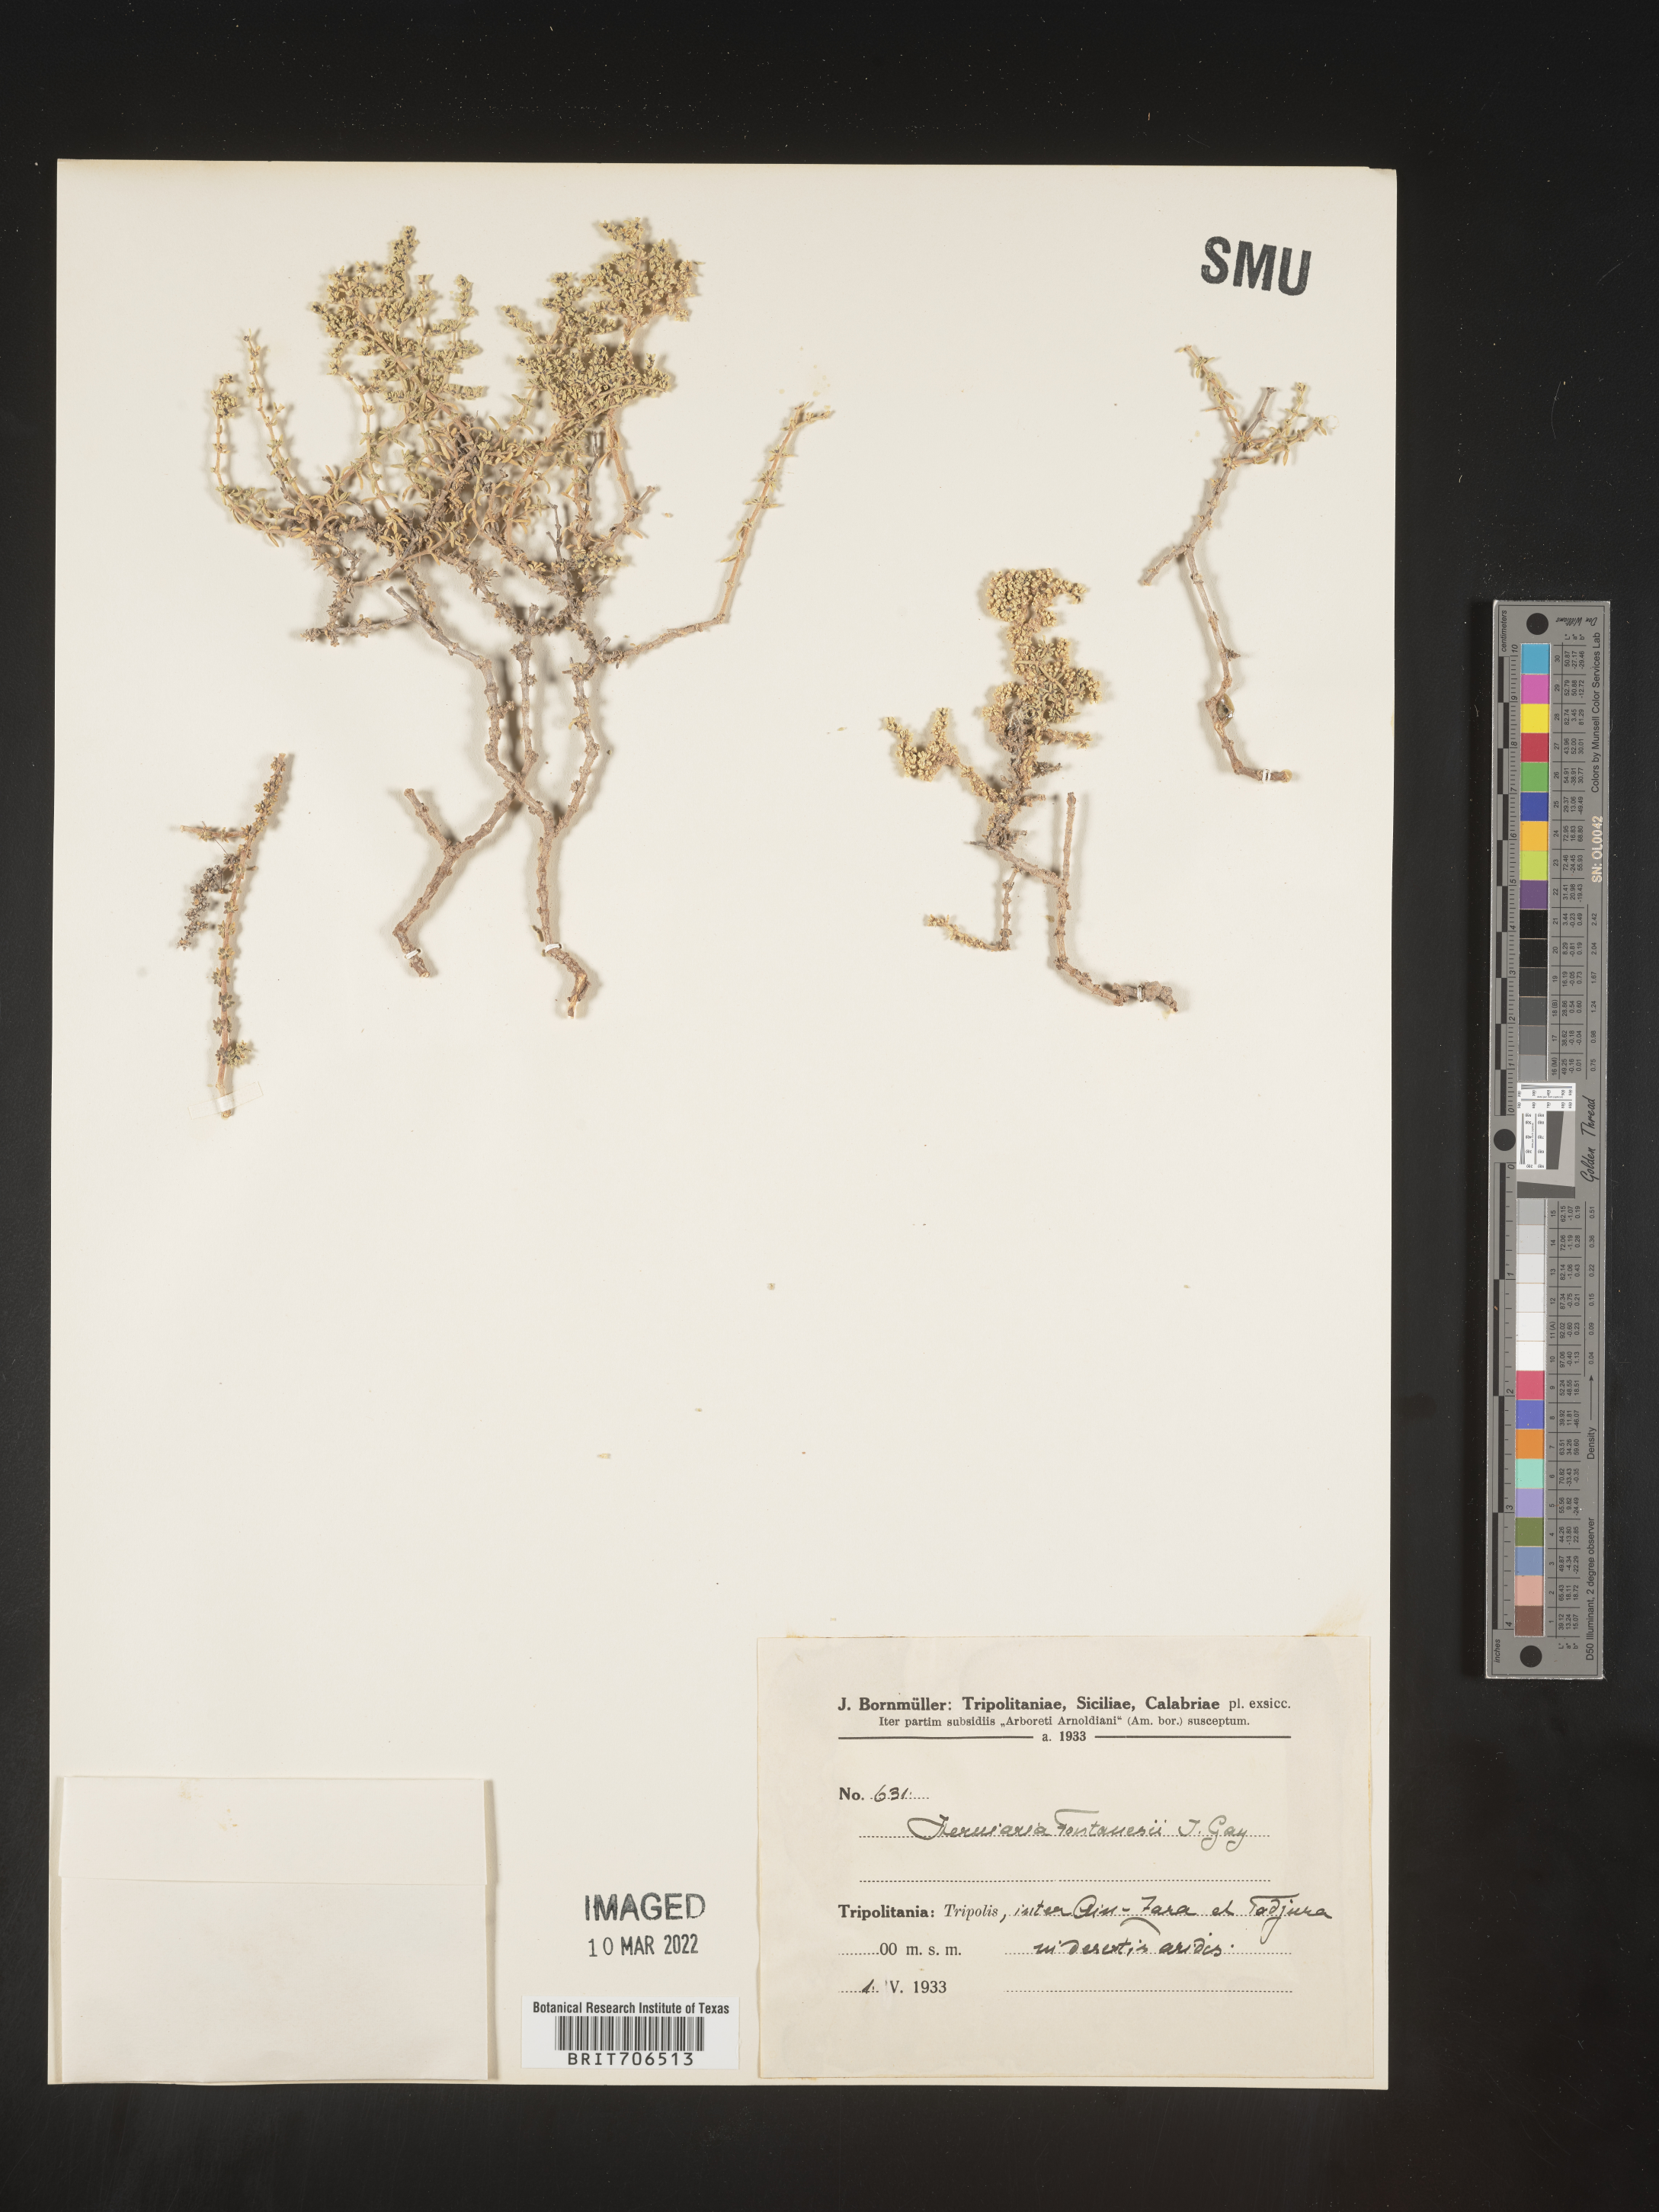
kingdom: Plantae
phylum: Tracheophyta
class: Magnoliopsida
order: Caryophyllales
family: Caryophyllaceae
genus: Herniaria
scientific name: Herniaria
